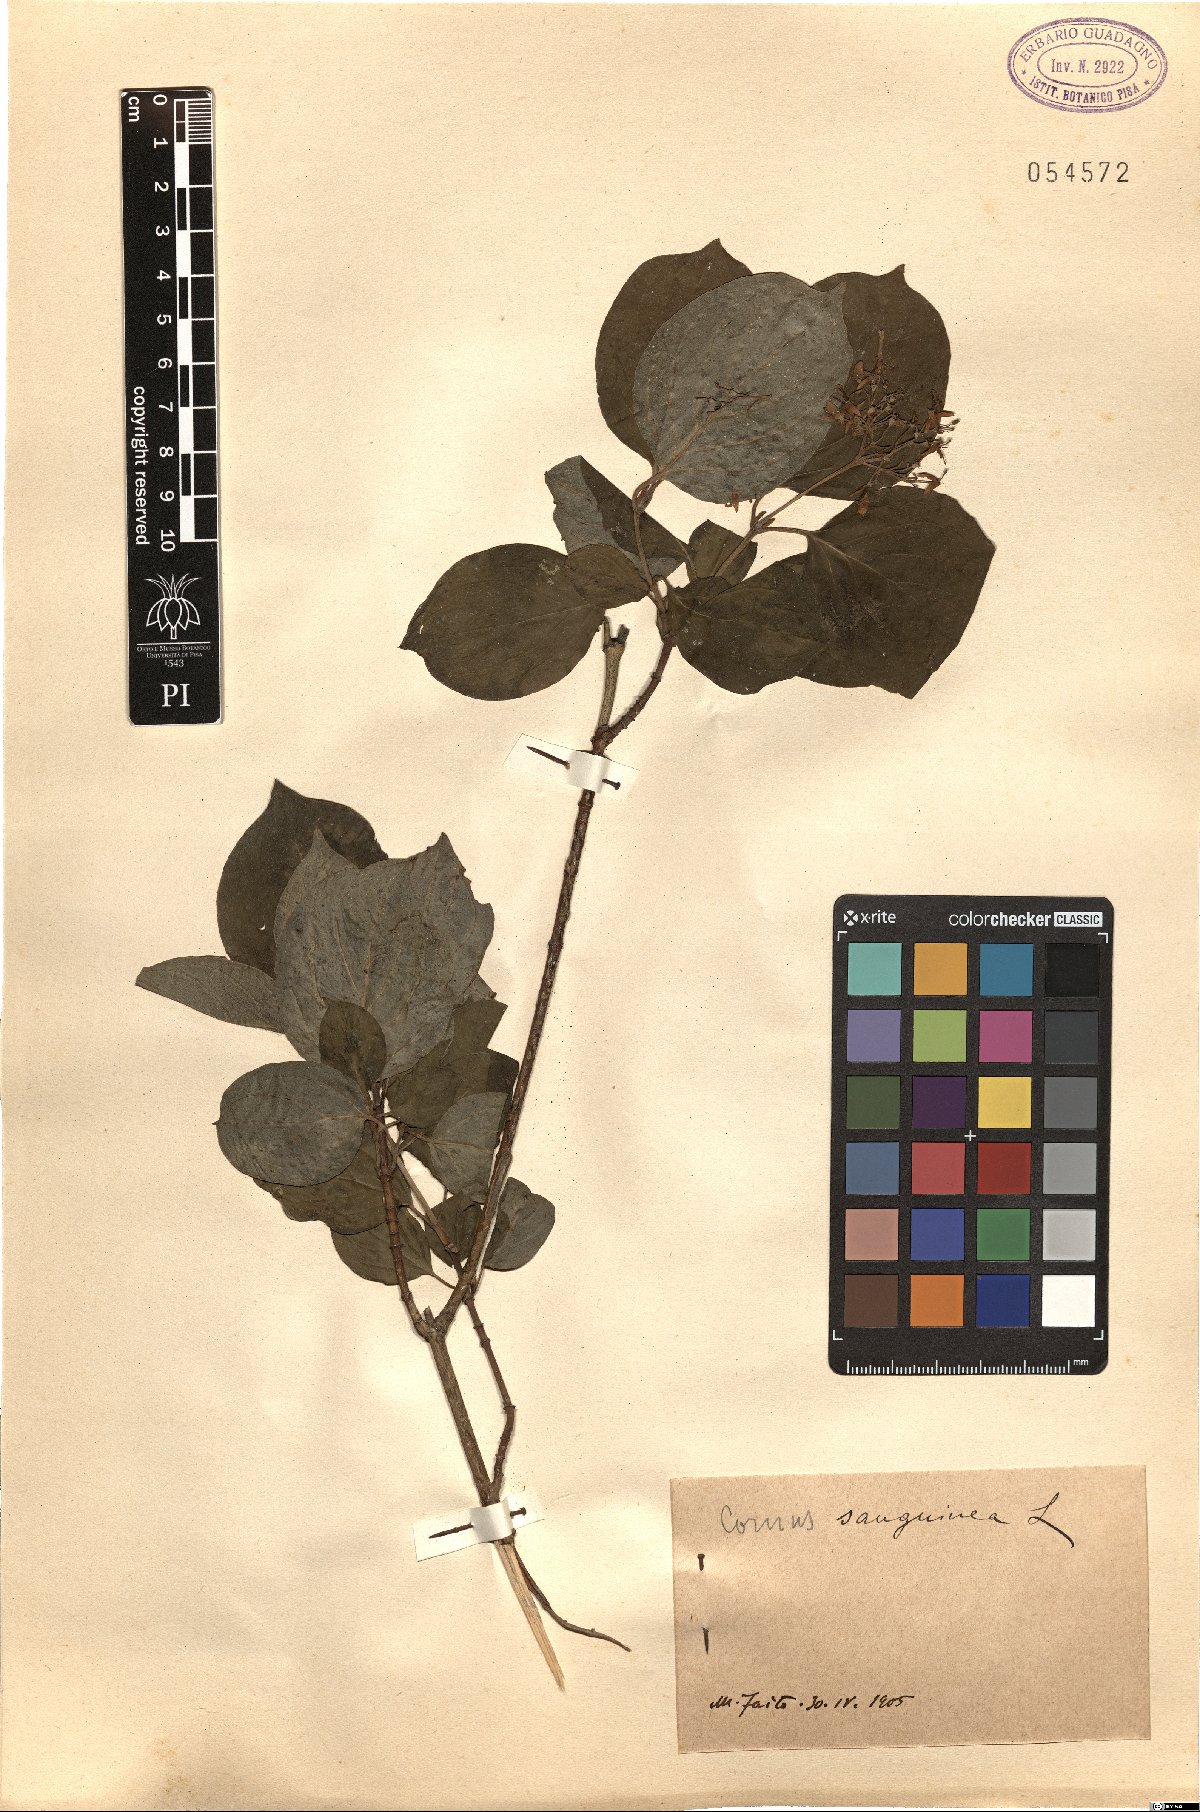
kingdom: Plantae
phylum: Tracheophyta
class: Magnoliopsida
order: Cornales
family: Cornaceae
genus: Cornus
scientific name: Cornus sanguinea
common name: Dogwood
